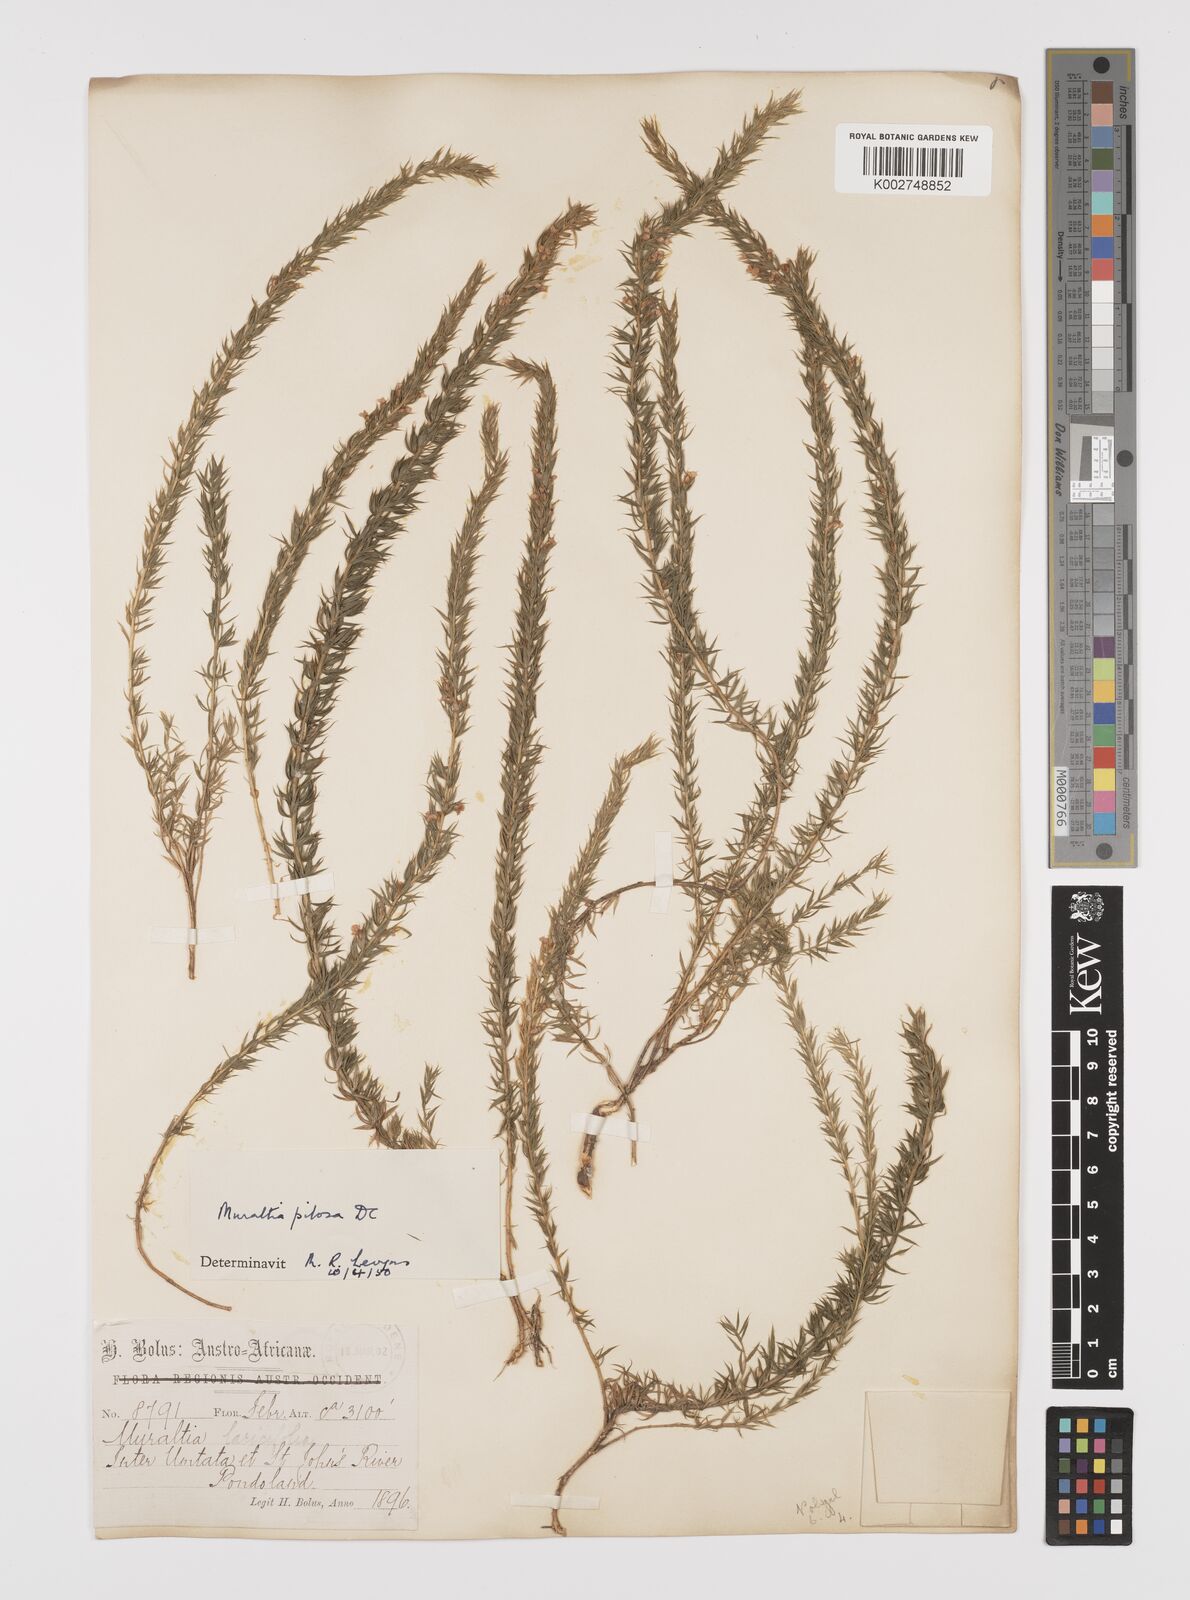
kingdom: Plantae
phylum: Tracheophyta
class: Magnoliopsida
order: Fabales
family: Polygalaceae
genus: Muraltia
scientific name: Muraltia lancifolia
